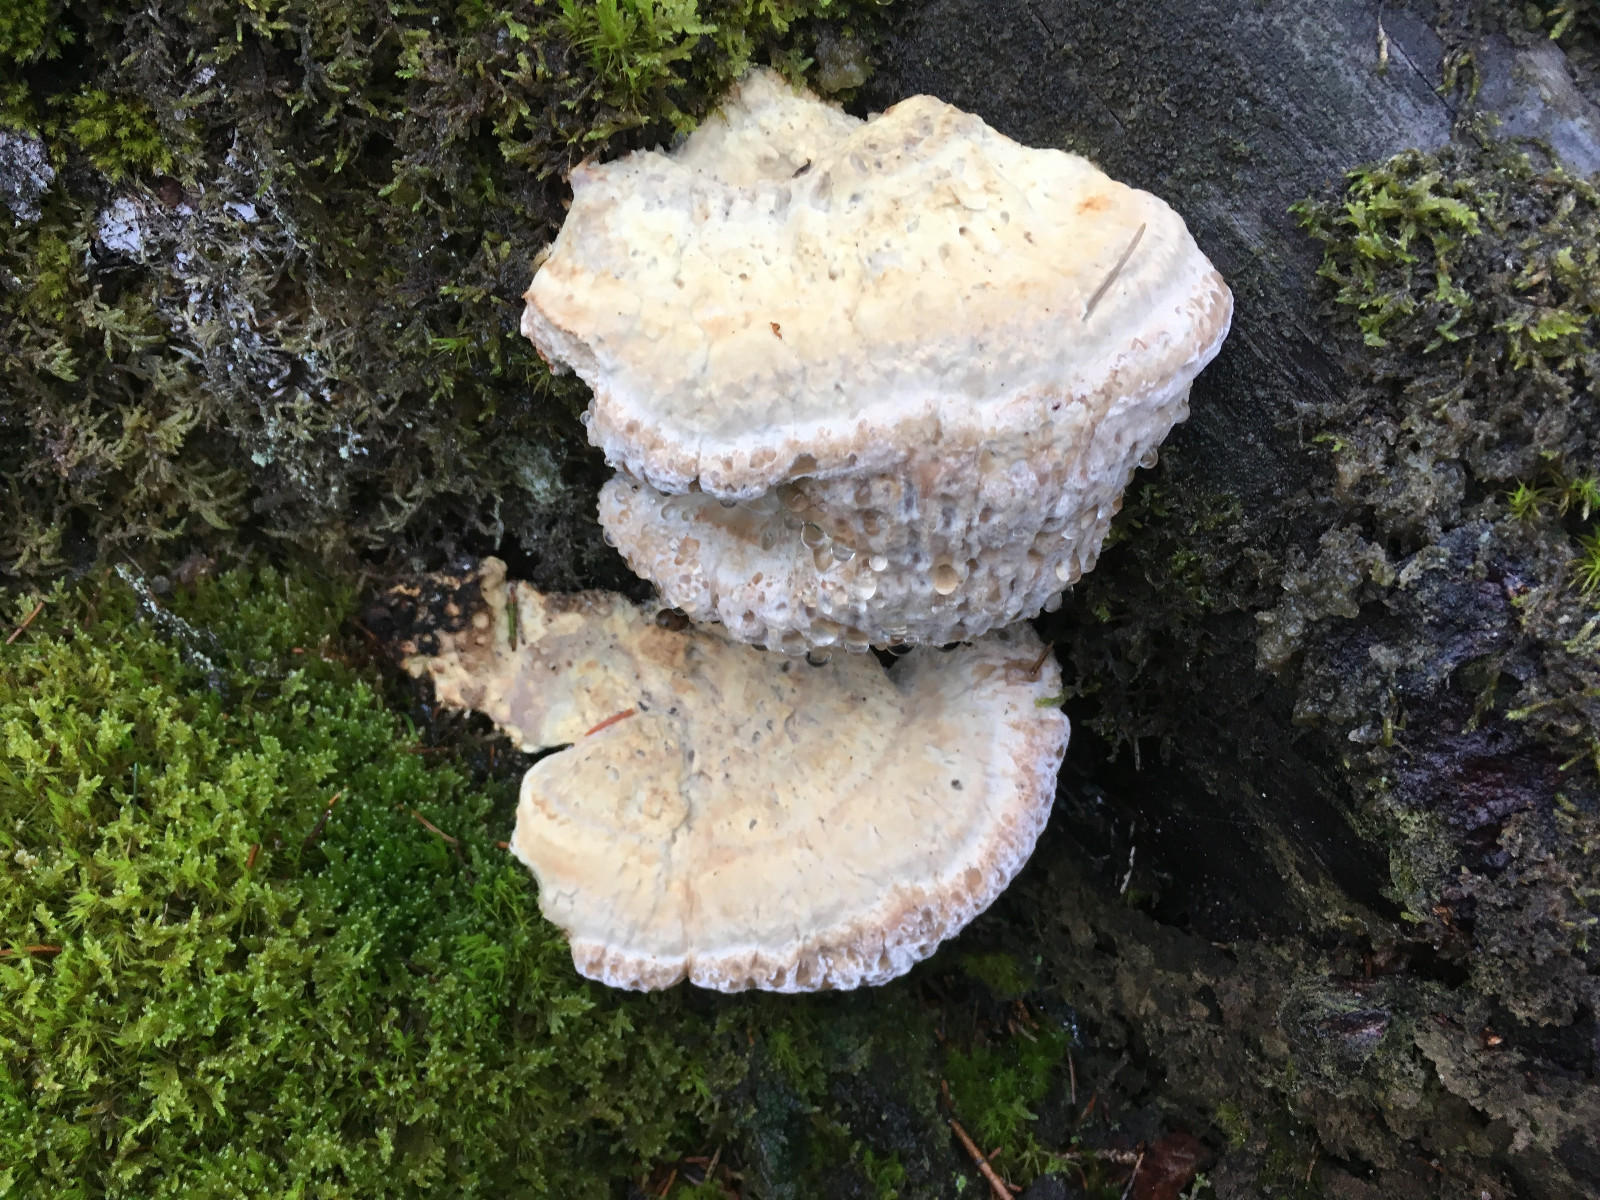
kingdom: Fungi
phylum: Basidiomycota
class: Agaricomycetes
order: Polyporales
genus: Calcipostia
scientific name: Calcipostia guttulata
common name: dråbe-kødporesvamp
